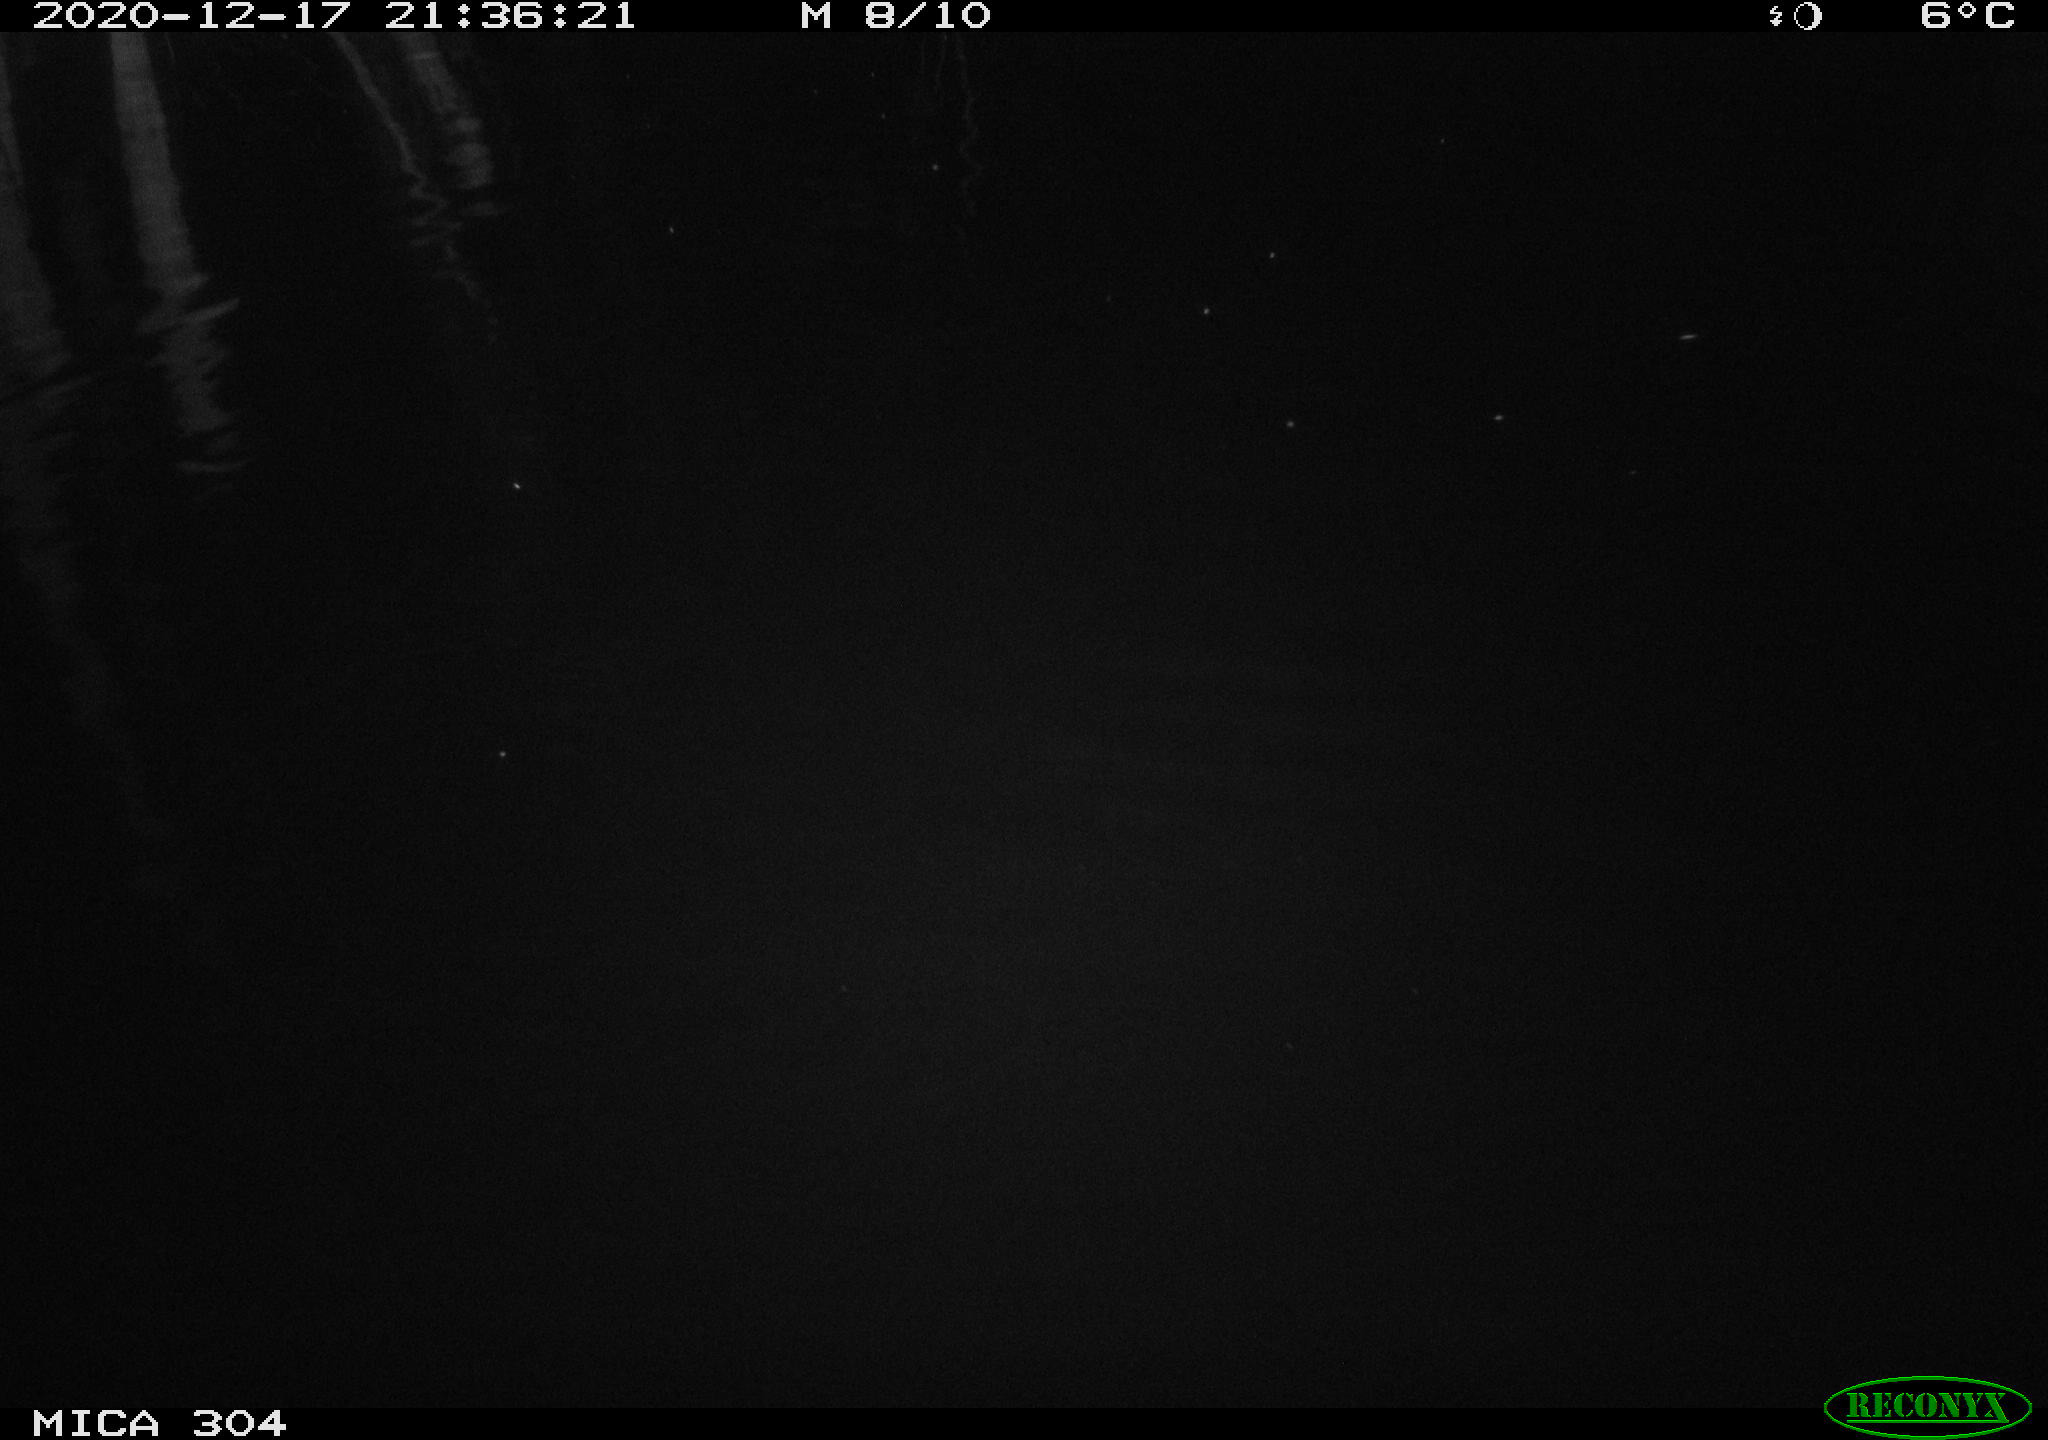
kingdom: Animalia
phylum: Chordata
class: Mammalia
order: Rodentia
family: Muridae
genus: Rattus
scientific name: Rattus norvegicus
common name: Brown rat
